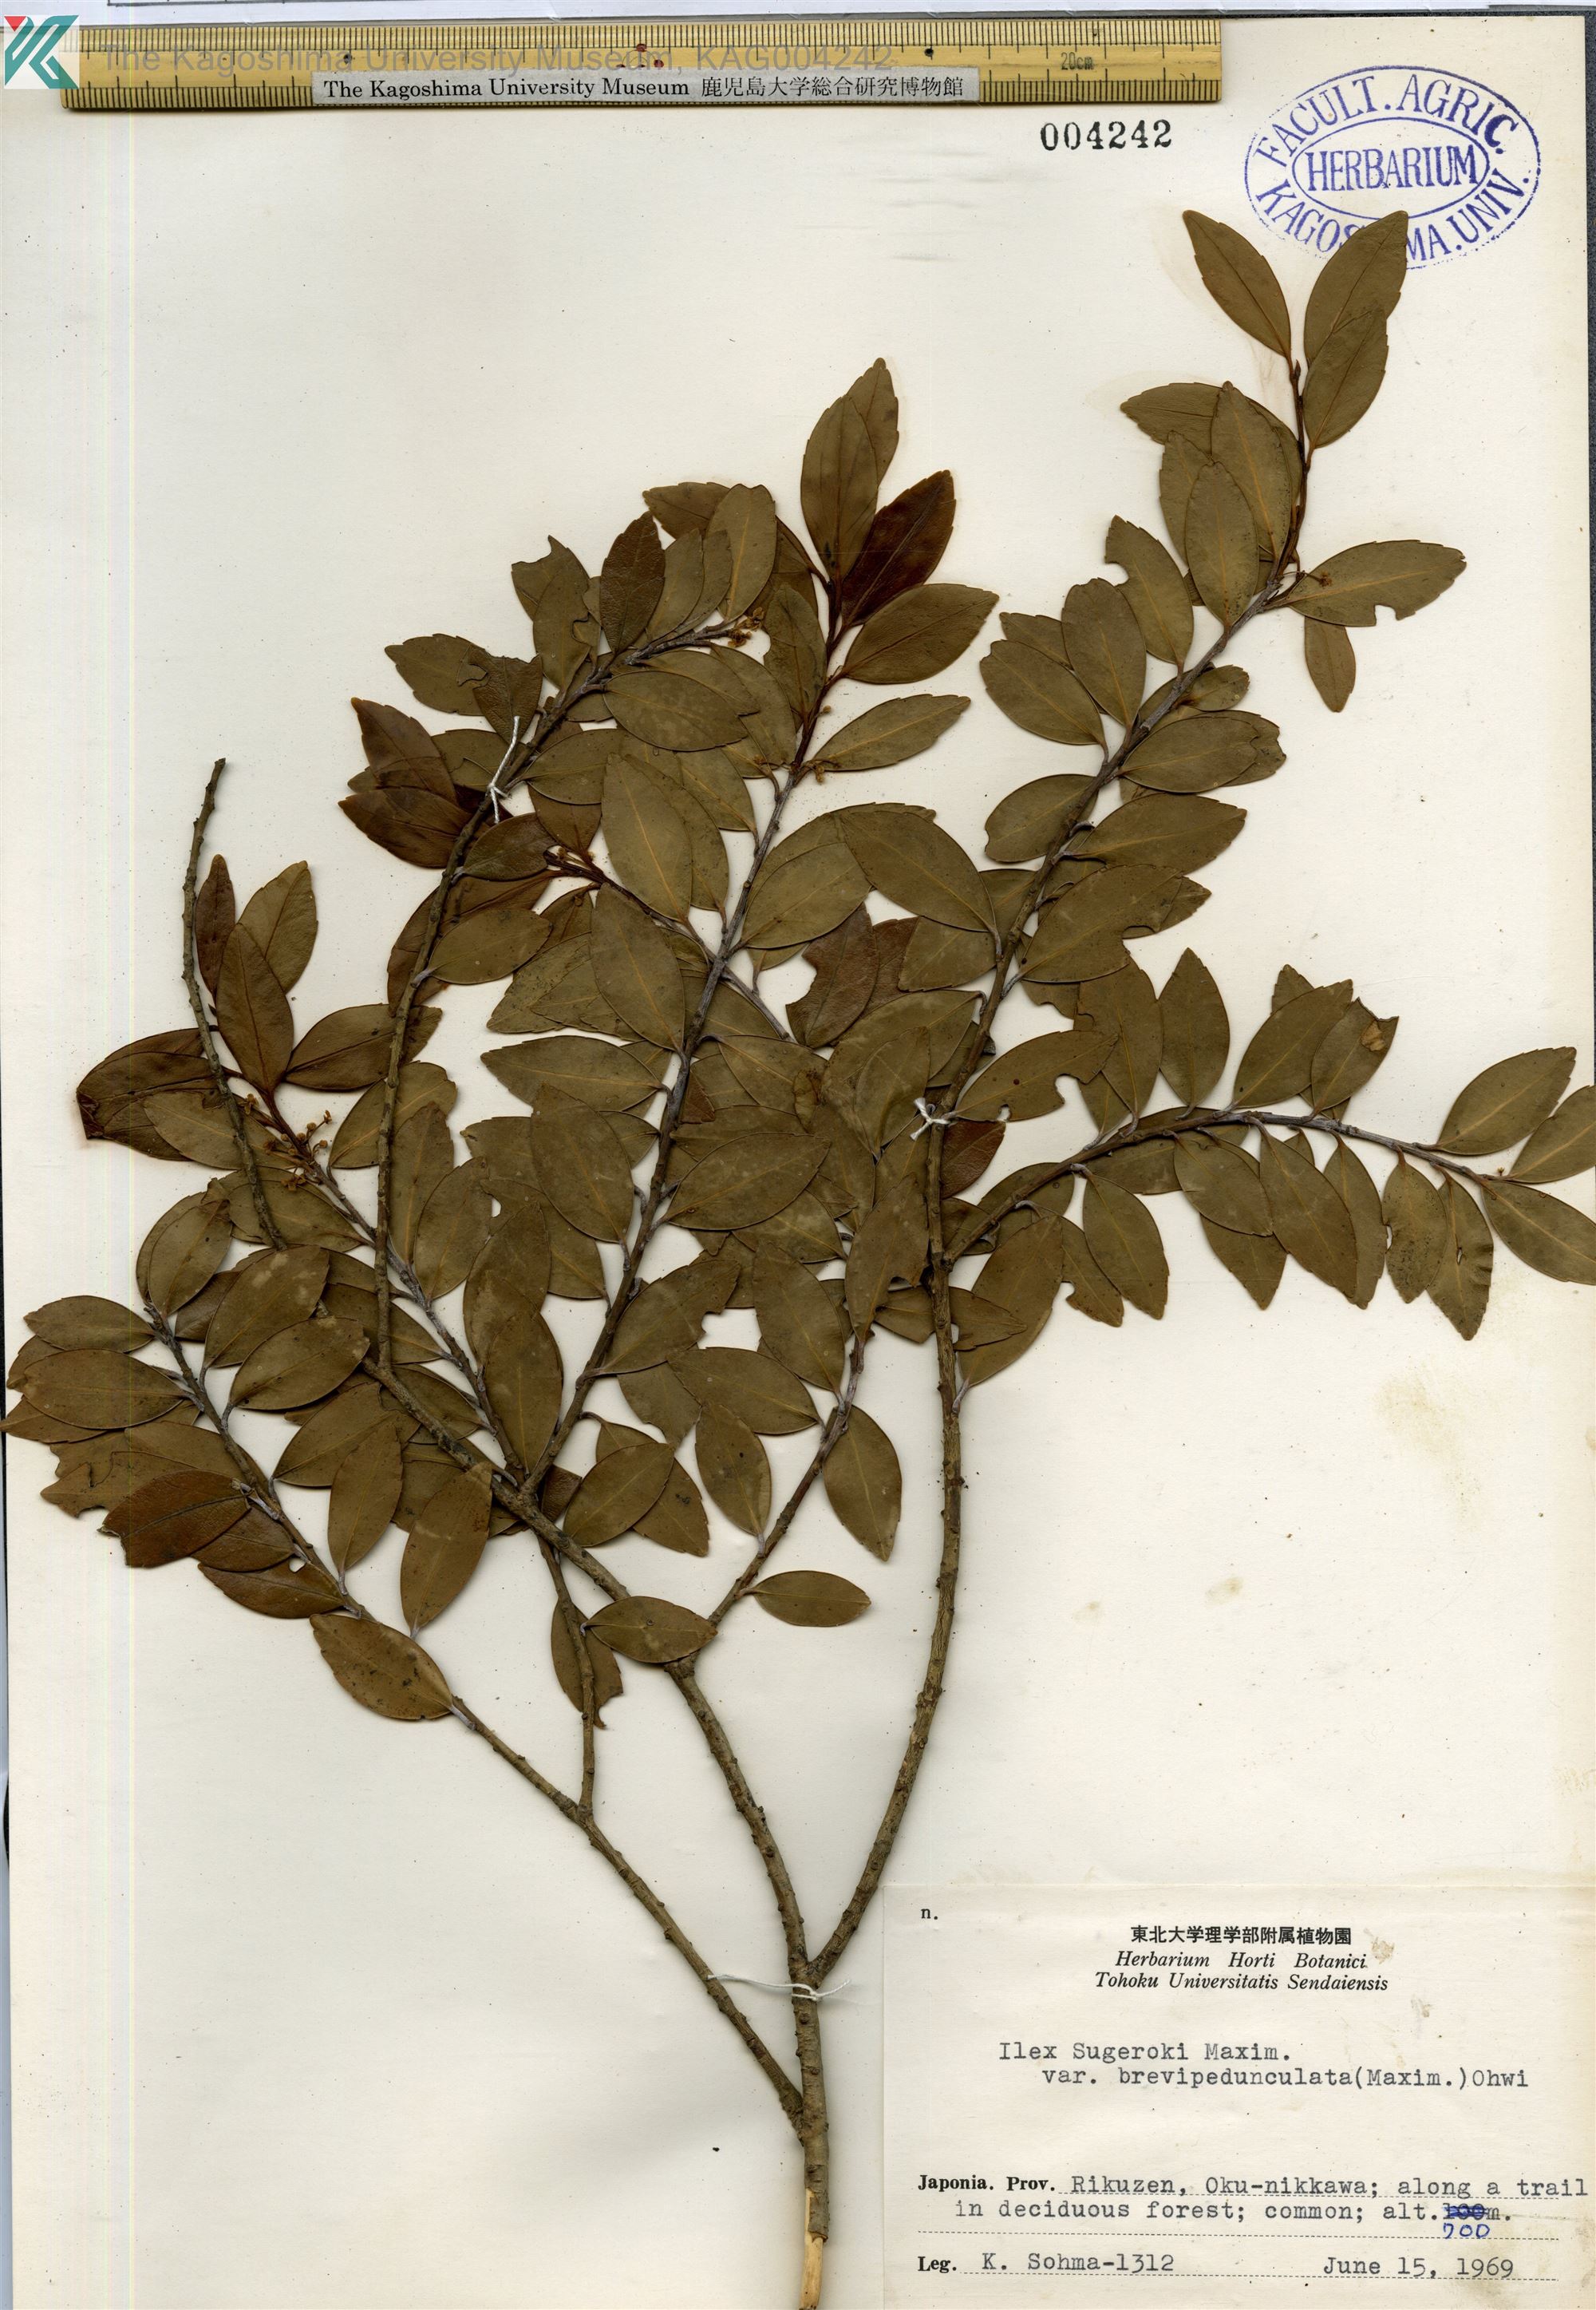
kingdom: Plantae
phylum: Tracheophyta
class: Magnoliopsida
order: Aquifoliales
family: Aquifoliaceae
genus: Ilex
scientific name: Ilex sugerokii
